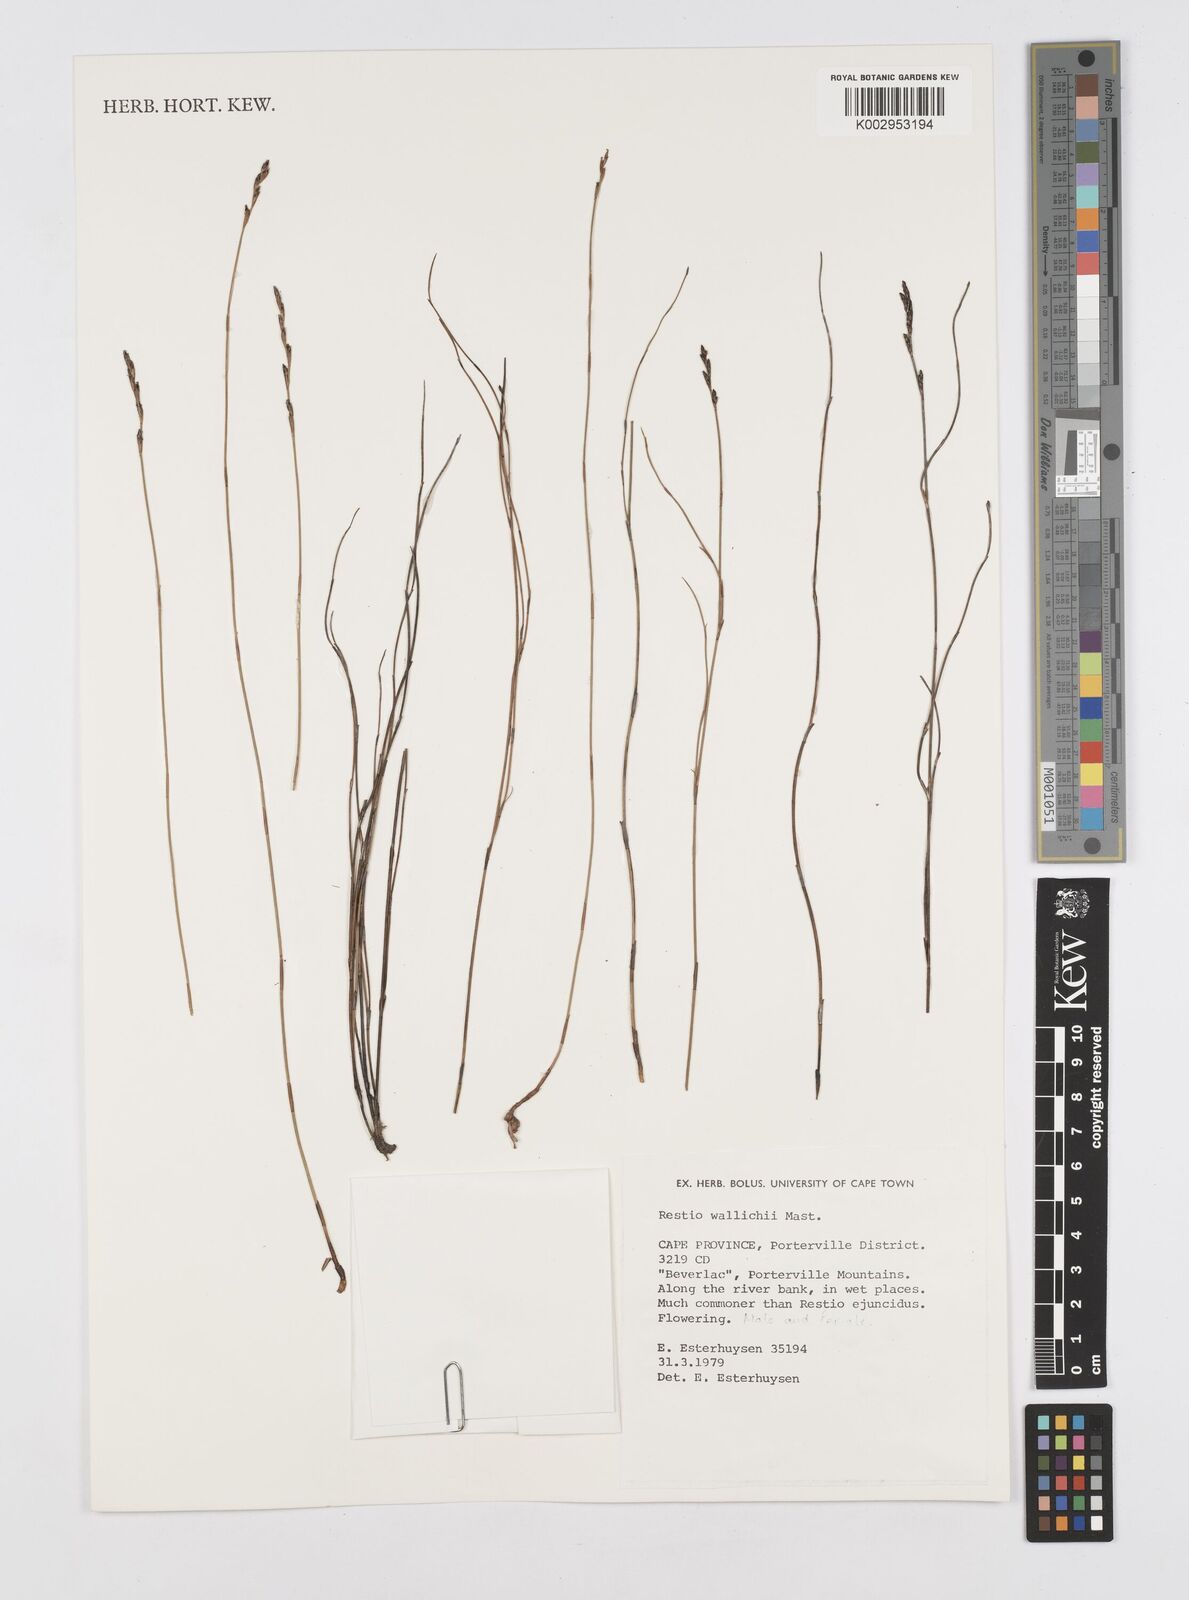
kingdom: Plantae
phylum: Tracheophyta
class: Liliopsida
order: Poales
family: Restionaceae
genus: Restio
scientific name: Restio wallichii
